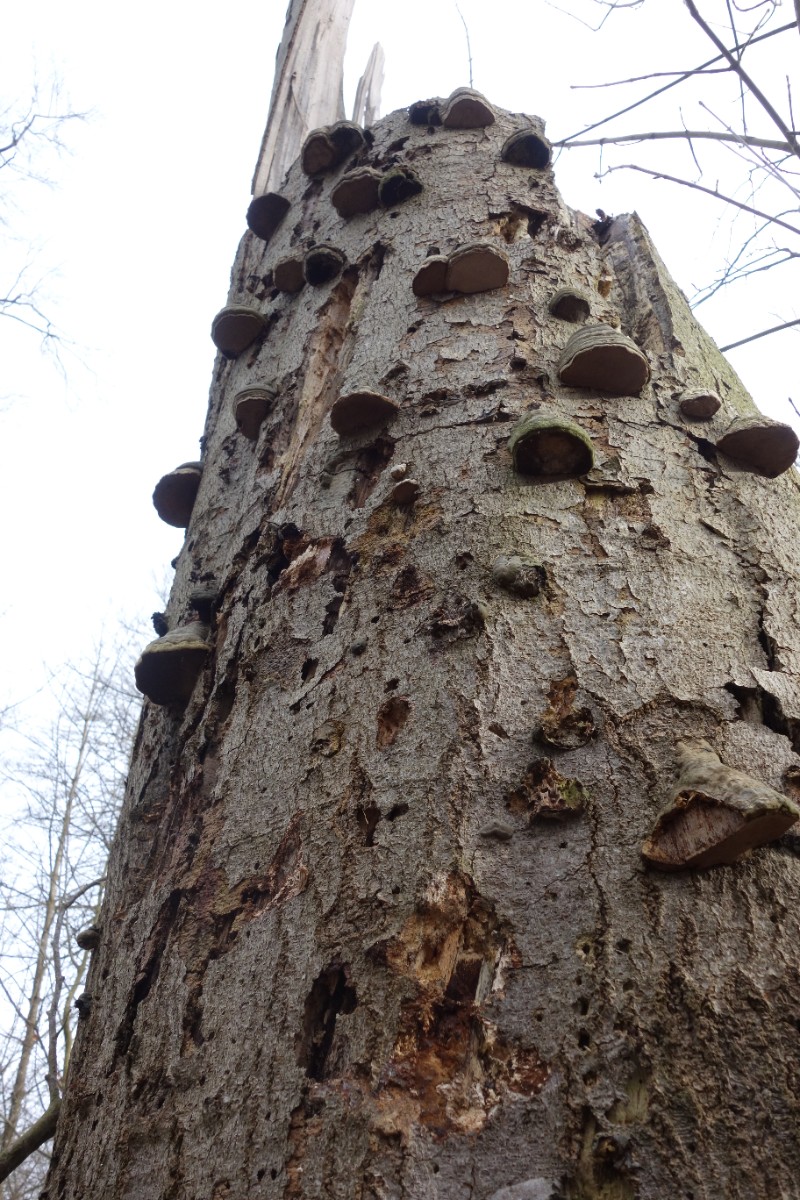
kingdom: Fungi
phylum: Basidiomycota
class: Agaricomycetes
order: Polyporales
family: Polyporaceae
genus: Fomes
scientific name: Fomes fomentarius
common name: tøndersvamp
